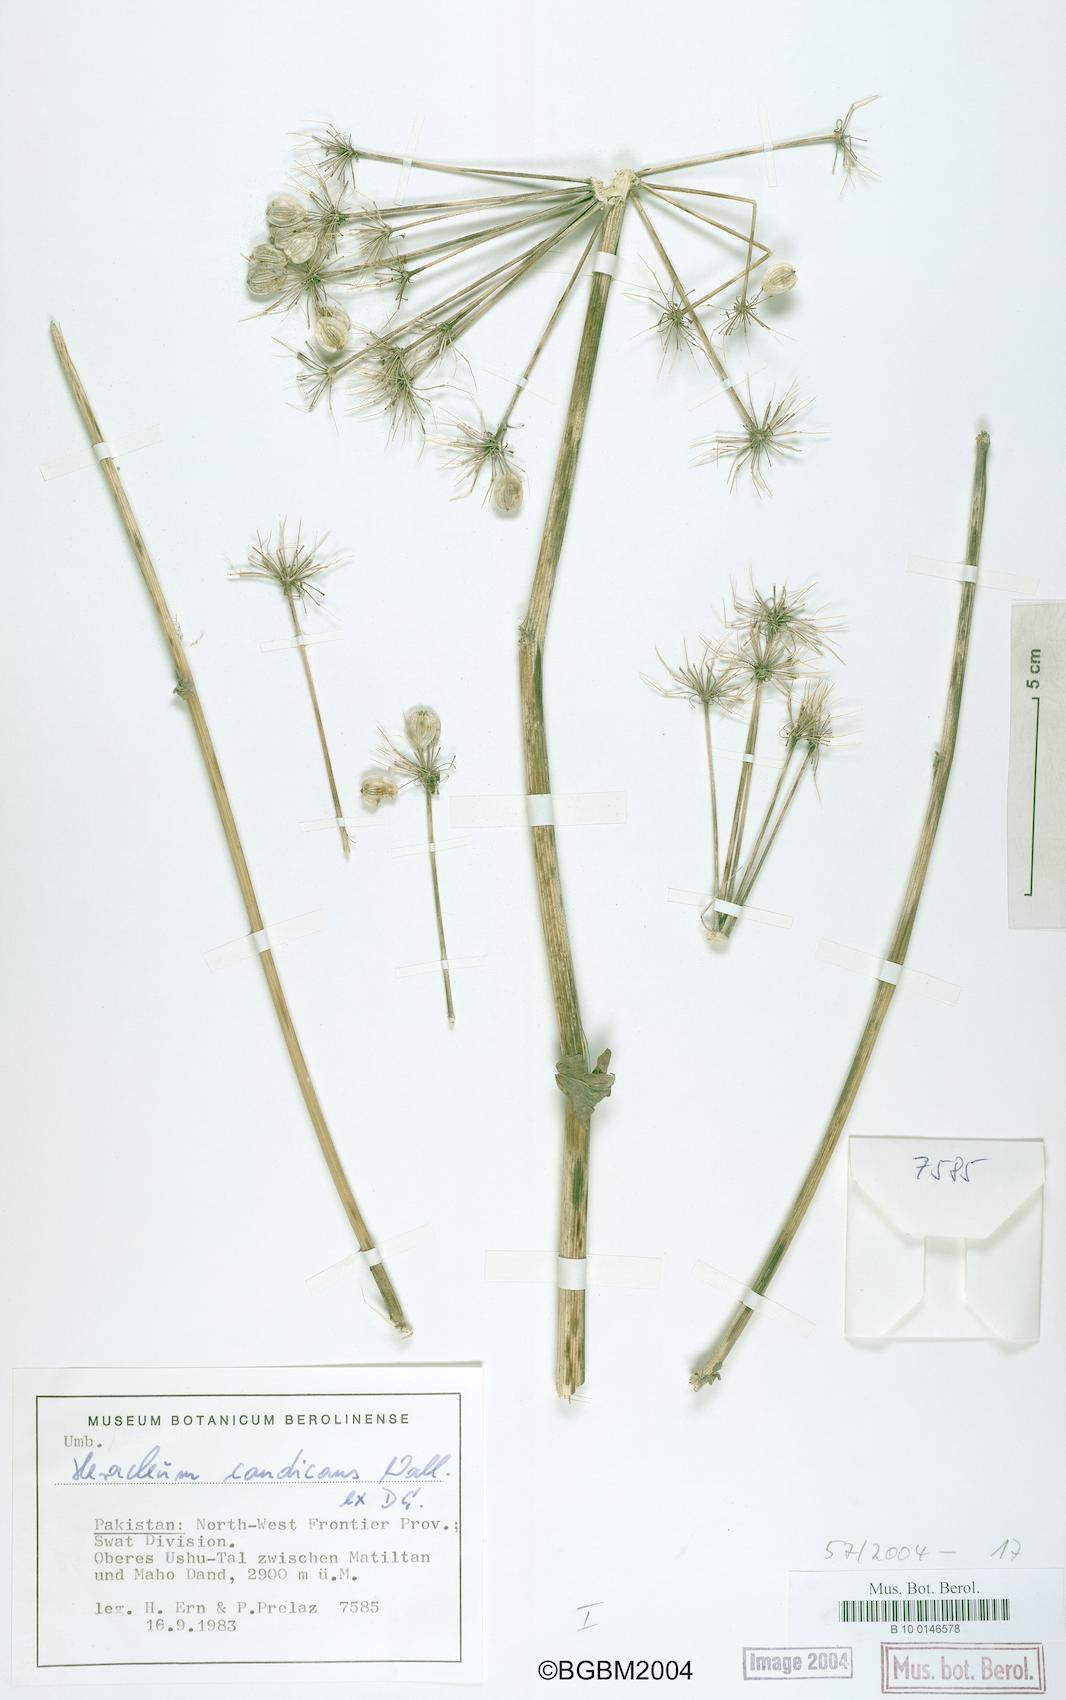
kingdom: Plantae
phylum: Tracheophyta
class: Magnoliopsida
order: Apiales
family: Apiaceae
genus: Tetrataenium
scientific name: Tetrataenium candicans
